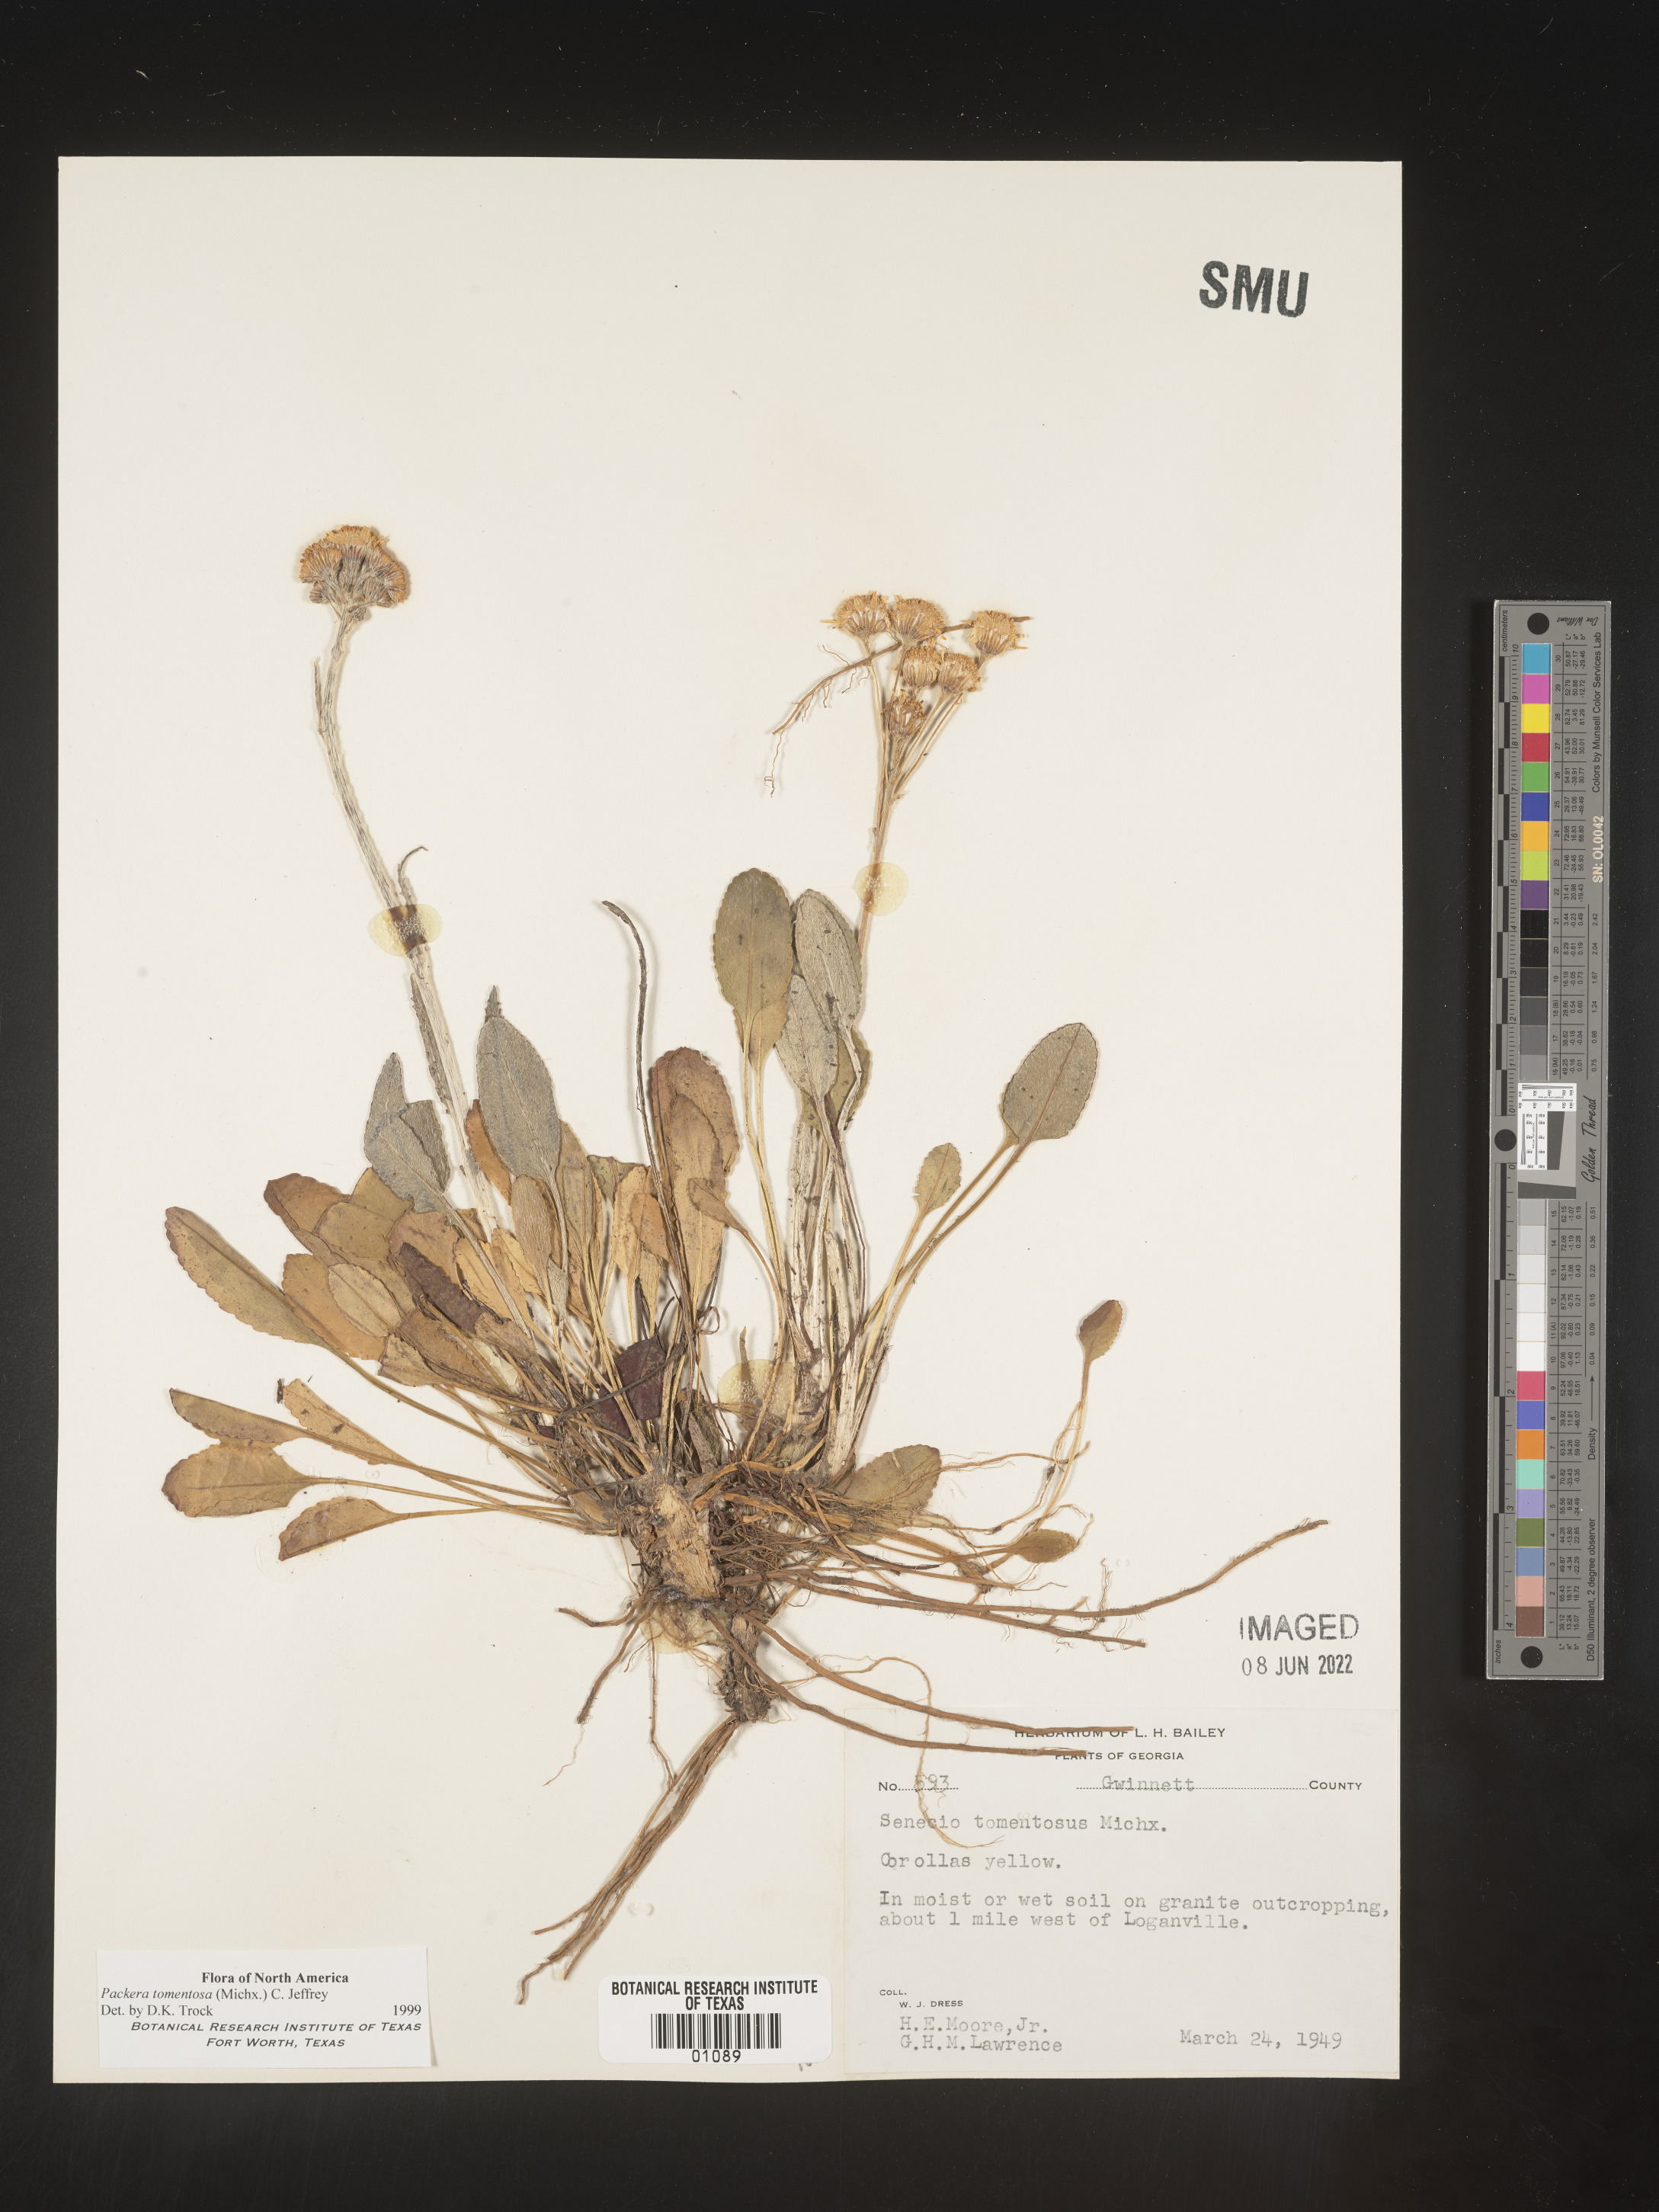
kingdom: Plantae
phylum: Tracheophyta
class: Magnoliopsida
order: Asterales
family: Asteraceae
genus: Packera
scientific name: Packera dubia
